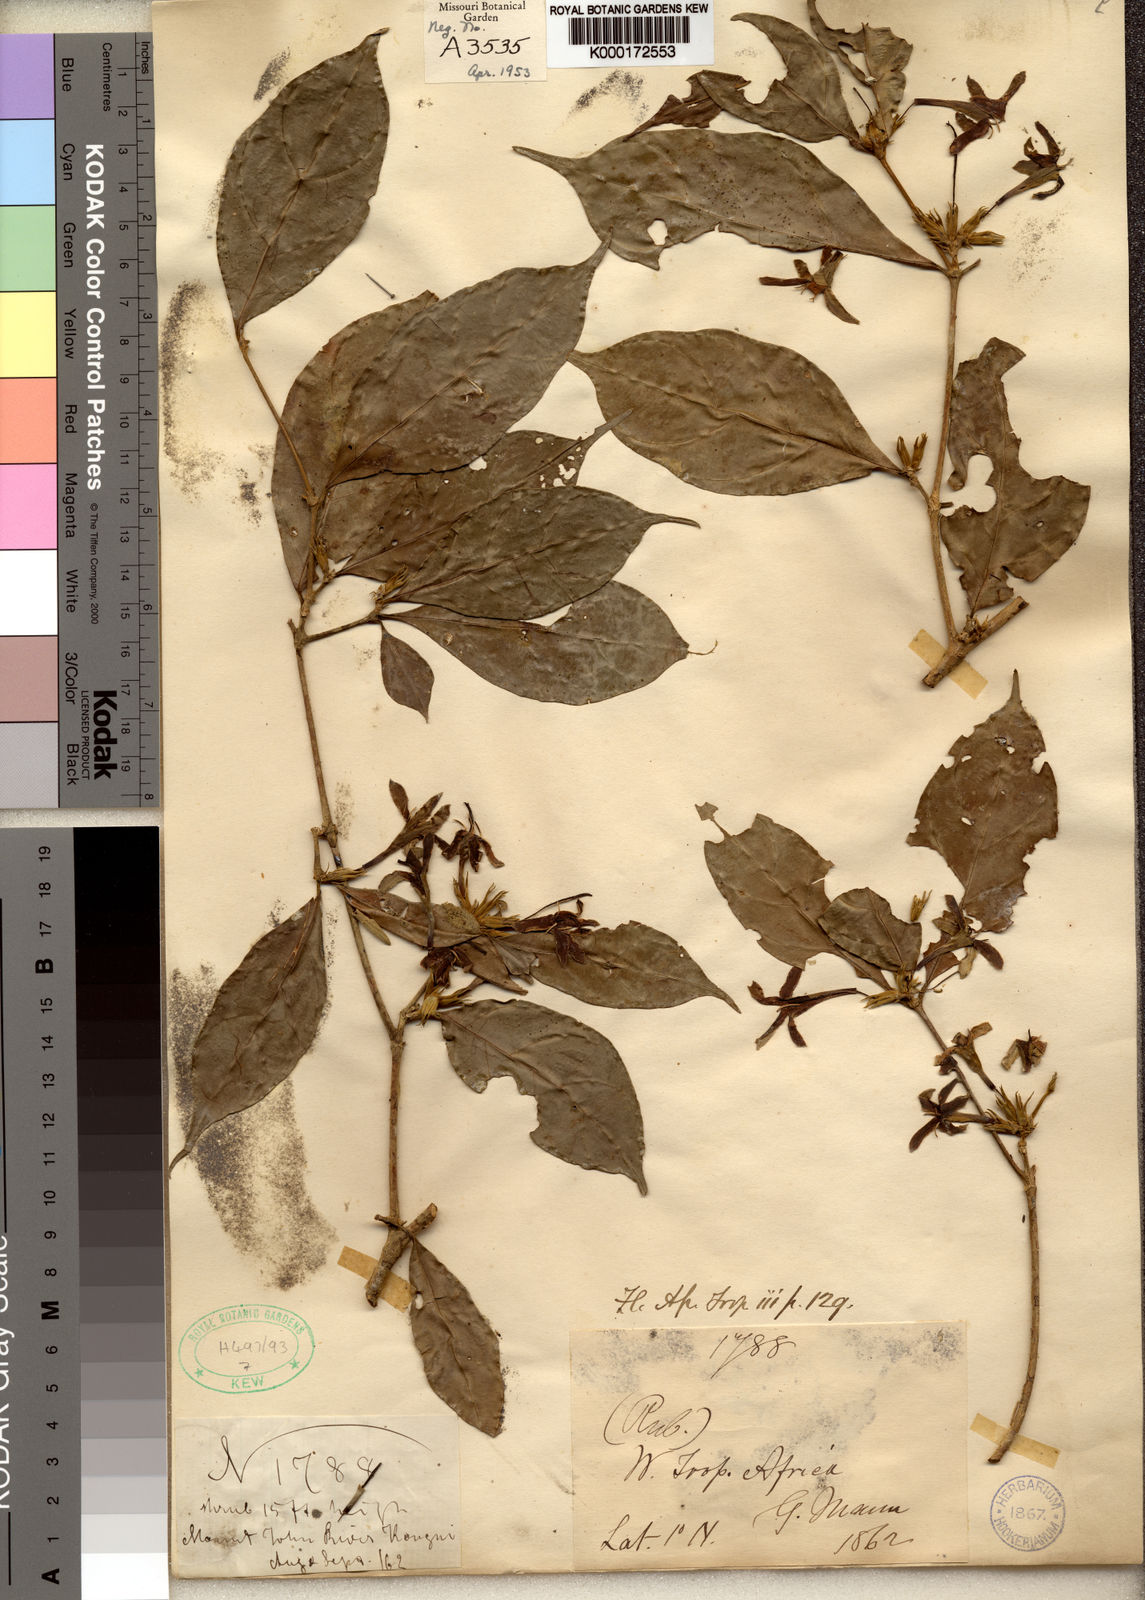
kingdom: Plantae
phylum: Tracheophyta
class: Magnoliopsida
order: Gentianales
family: Rubiaceae
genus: Aulacocalyx
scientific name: Aulacocalyx jasminiflora
